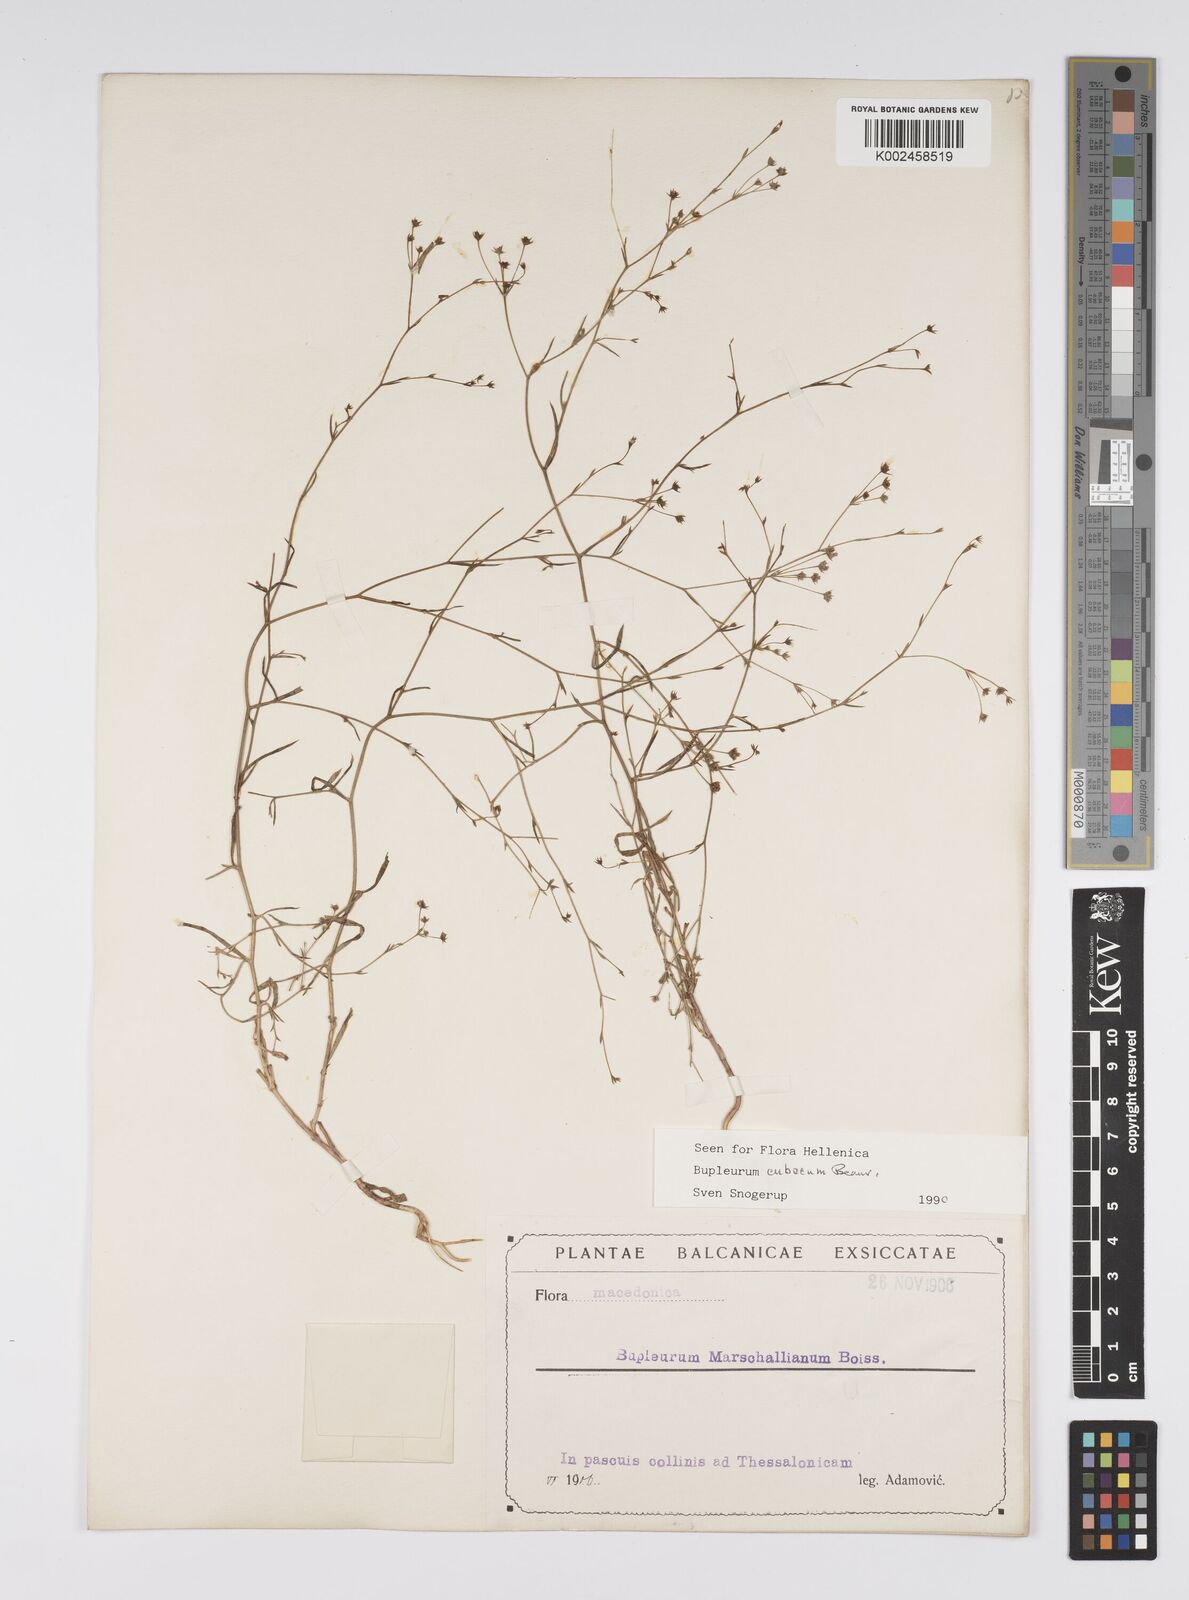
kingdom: Plantae
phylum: Tracheophyta
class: Magnoliopsida
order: Apiales
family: Apiaceae
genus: Bupleurum
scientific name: Bupleurum tenuissimum
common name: Slender hare's-ear
